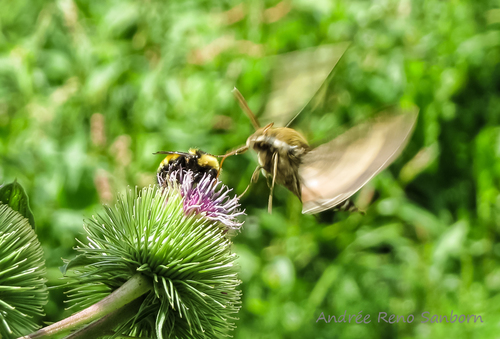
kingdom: Animalia
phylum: Arthropoda
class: Insecta
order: Lepidoptera
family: Sphingidae
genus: Hyles
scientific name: Hyles gallii
